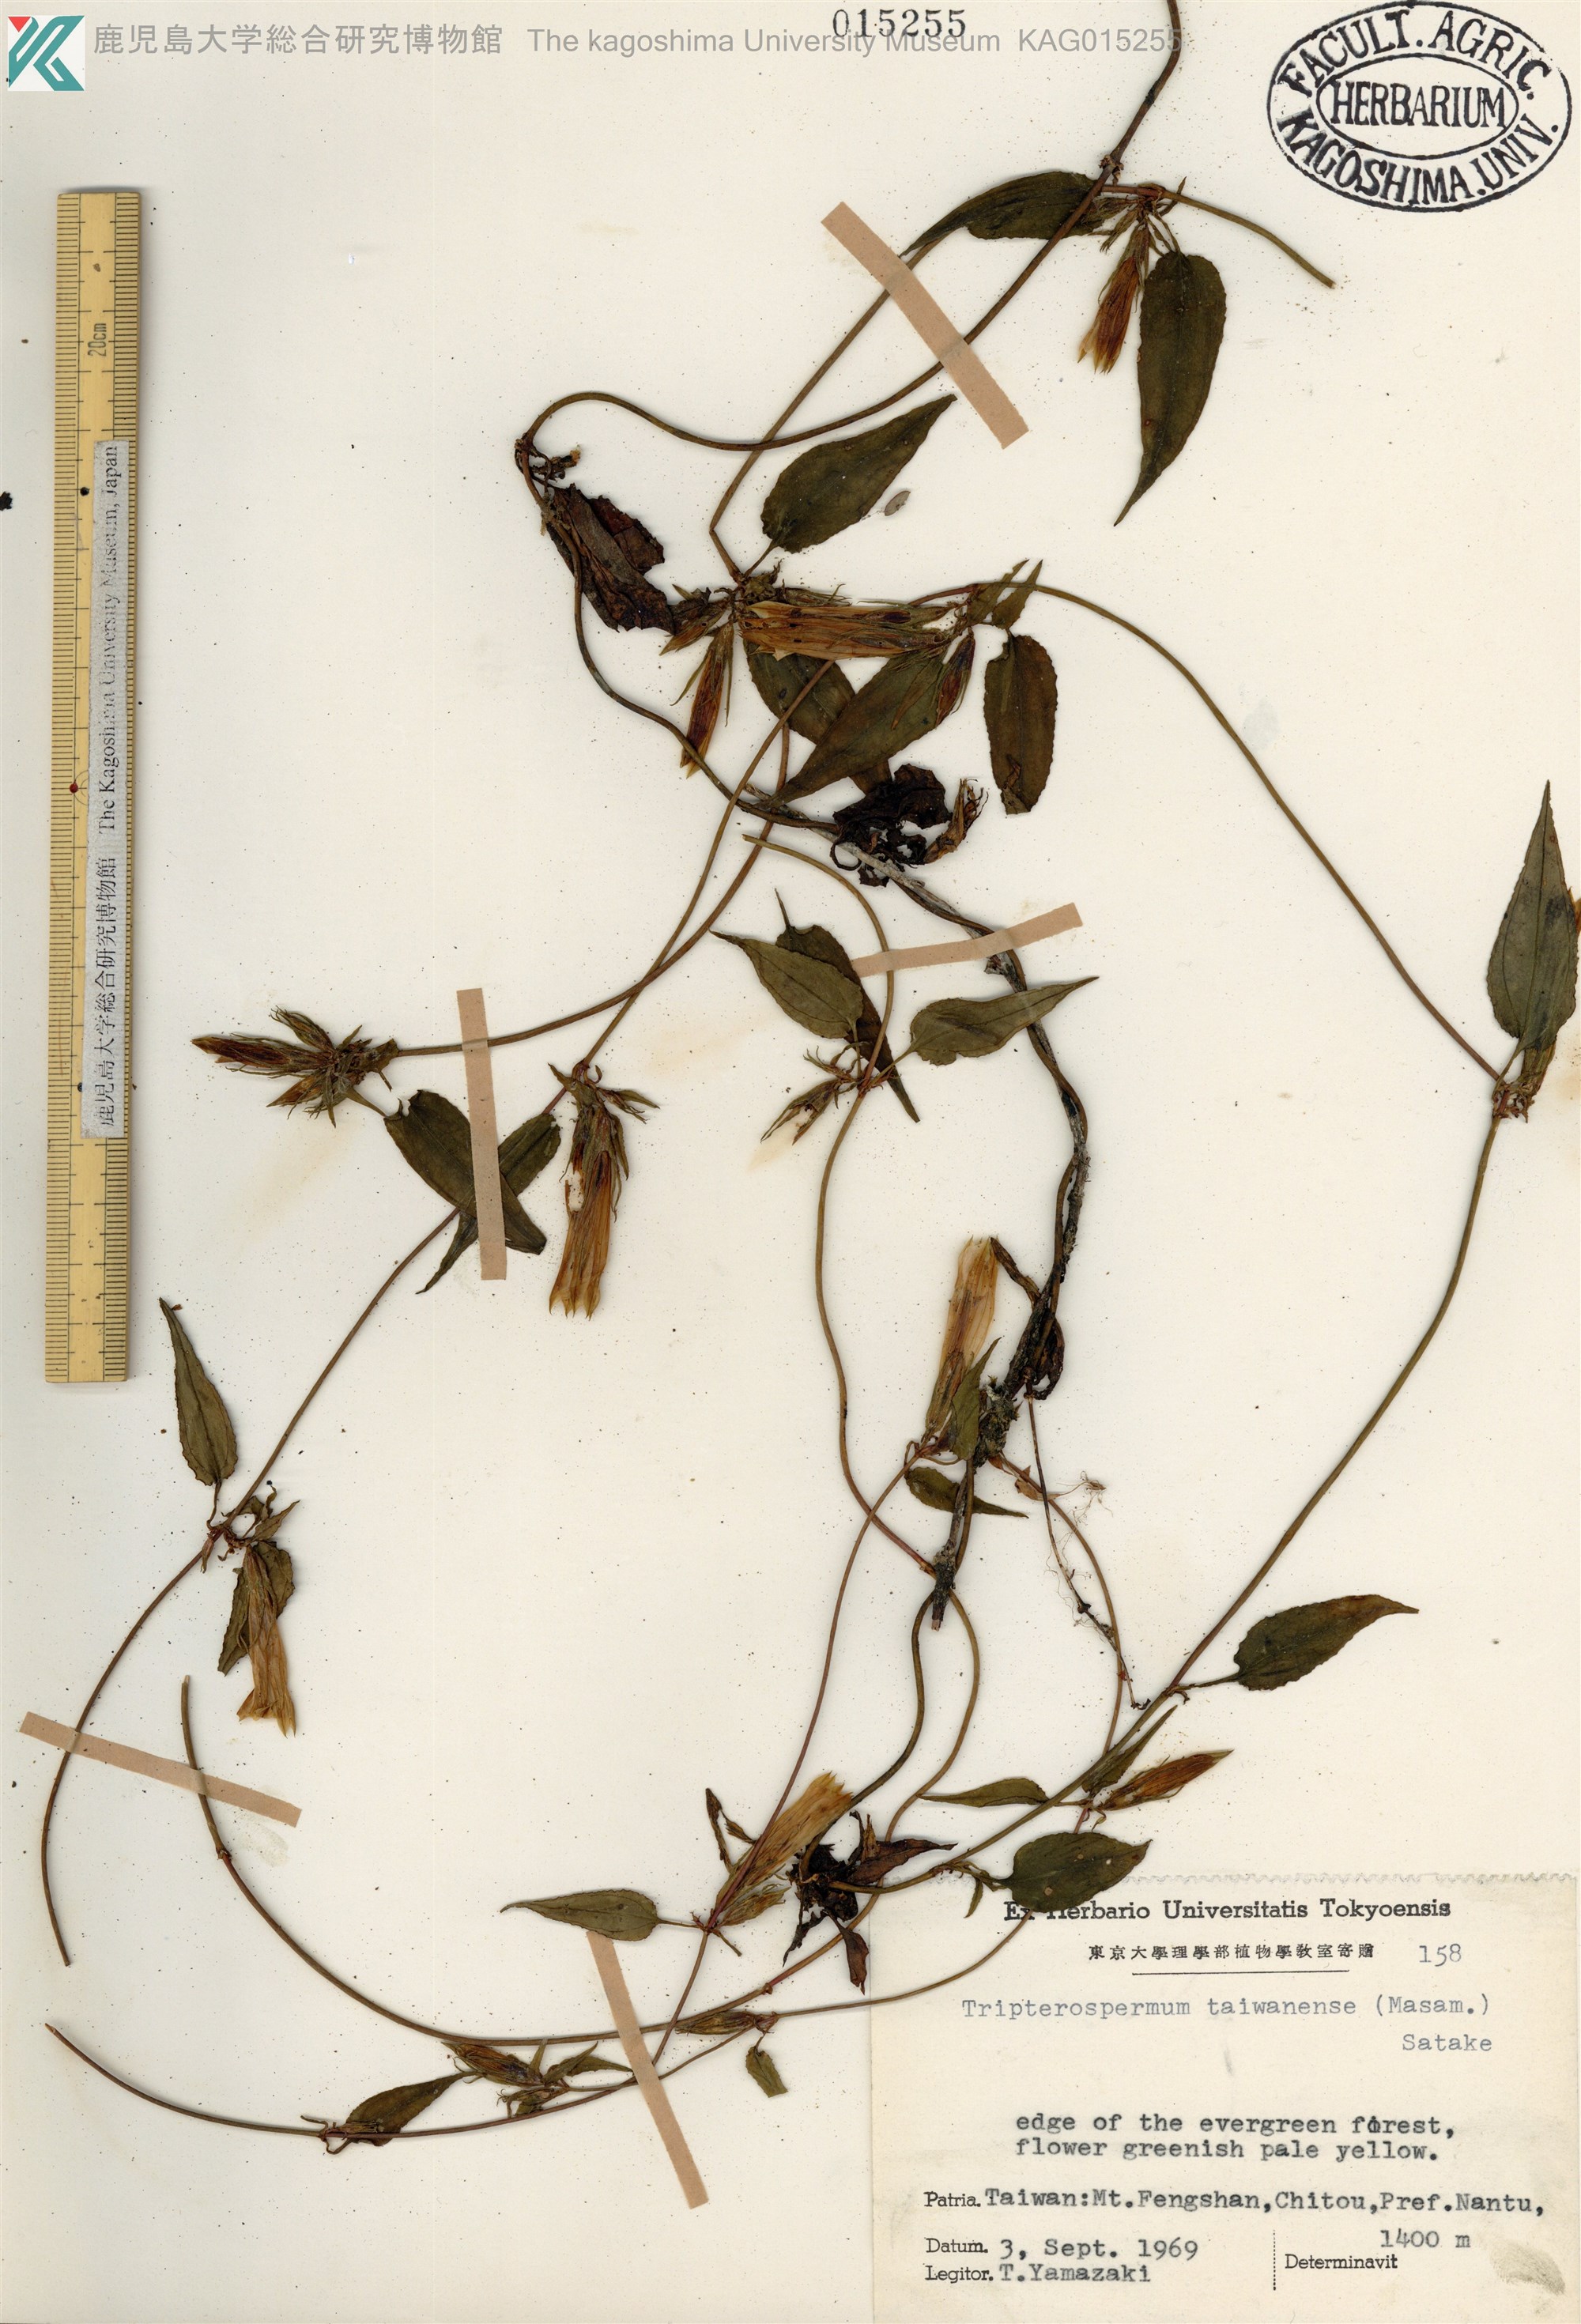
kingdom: Plantae
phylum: Tracheophyta
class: Magnoliopsida
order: Gentianales
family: Gentianaceae
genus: Tripterospermum
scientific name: Tripterospermum taiwanense
